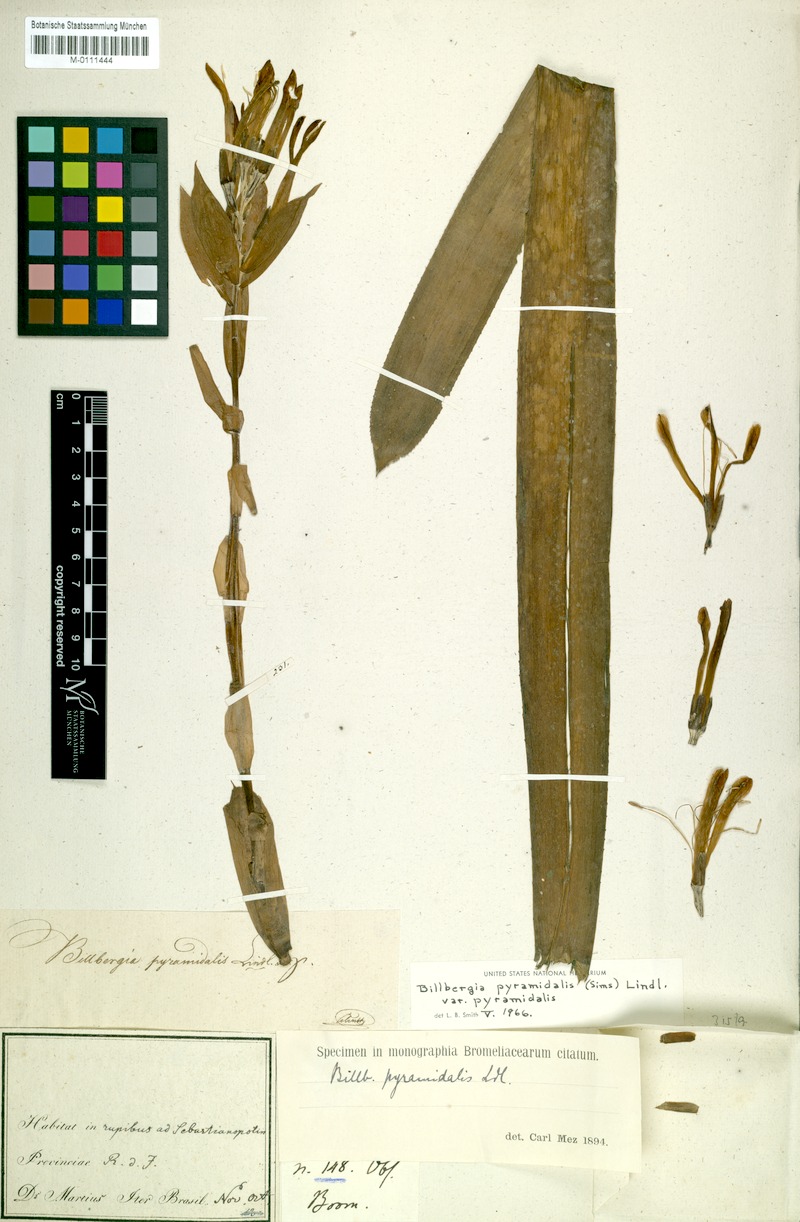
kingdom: Plantae
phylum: Tracheophyta
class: Liliopsida
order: Poales
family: Bromeliaceae
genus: Billbergia
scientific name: Billbergia pyramidalis
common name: Foolproofplant
